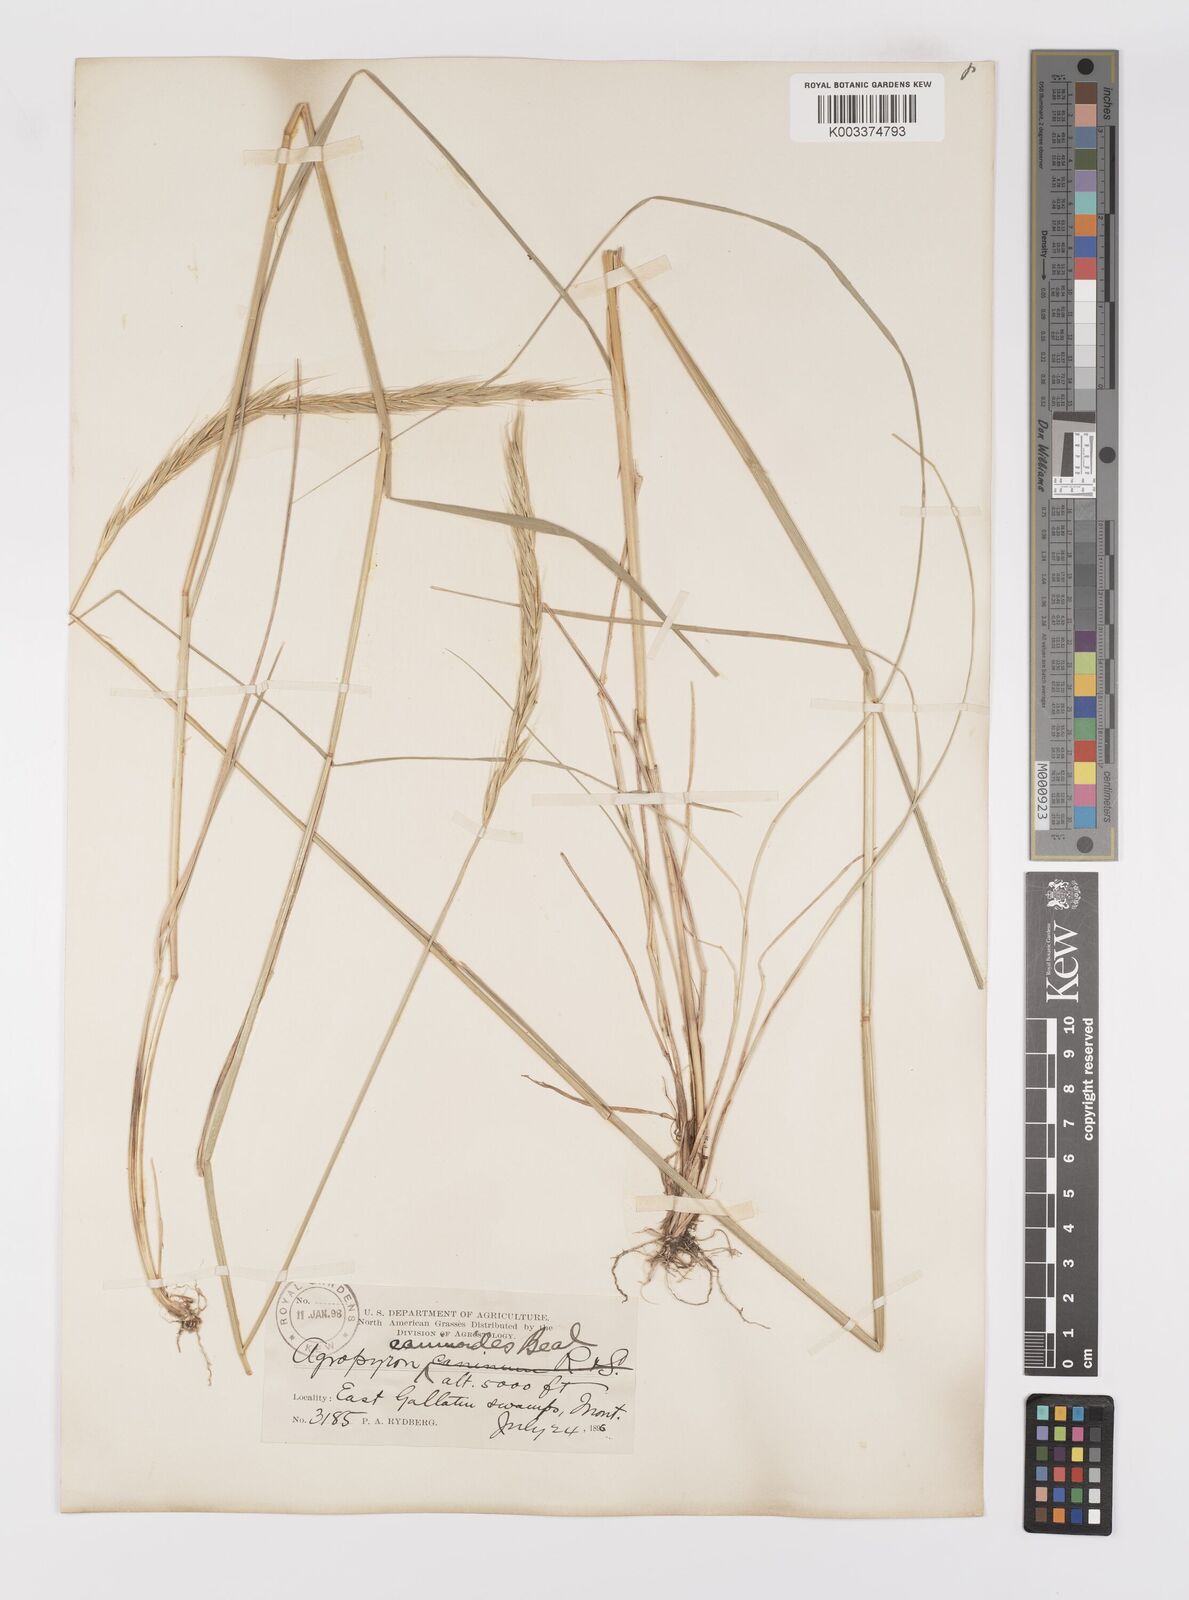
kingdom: Plantae
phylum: Tracheophyta
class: Liliopsida
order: Poales
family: Poaceae
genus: Elymus
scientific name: Elymus violaceus
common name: Arctic wheatgrass
